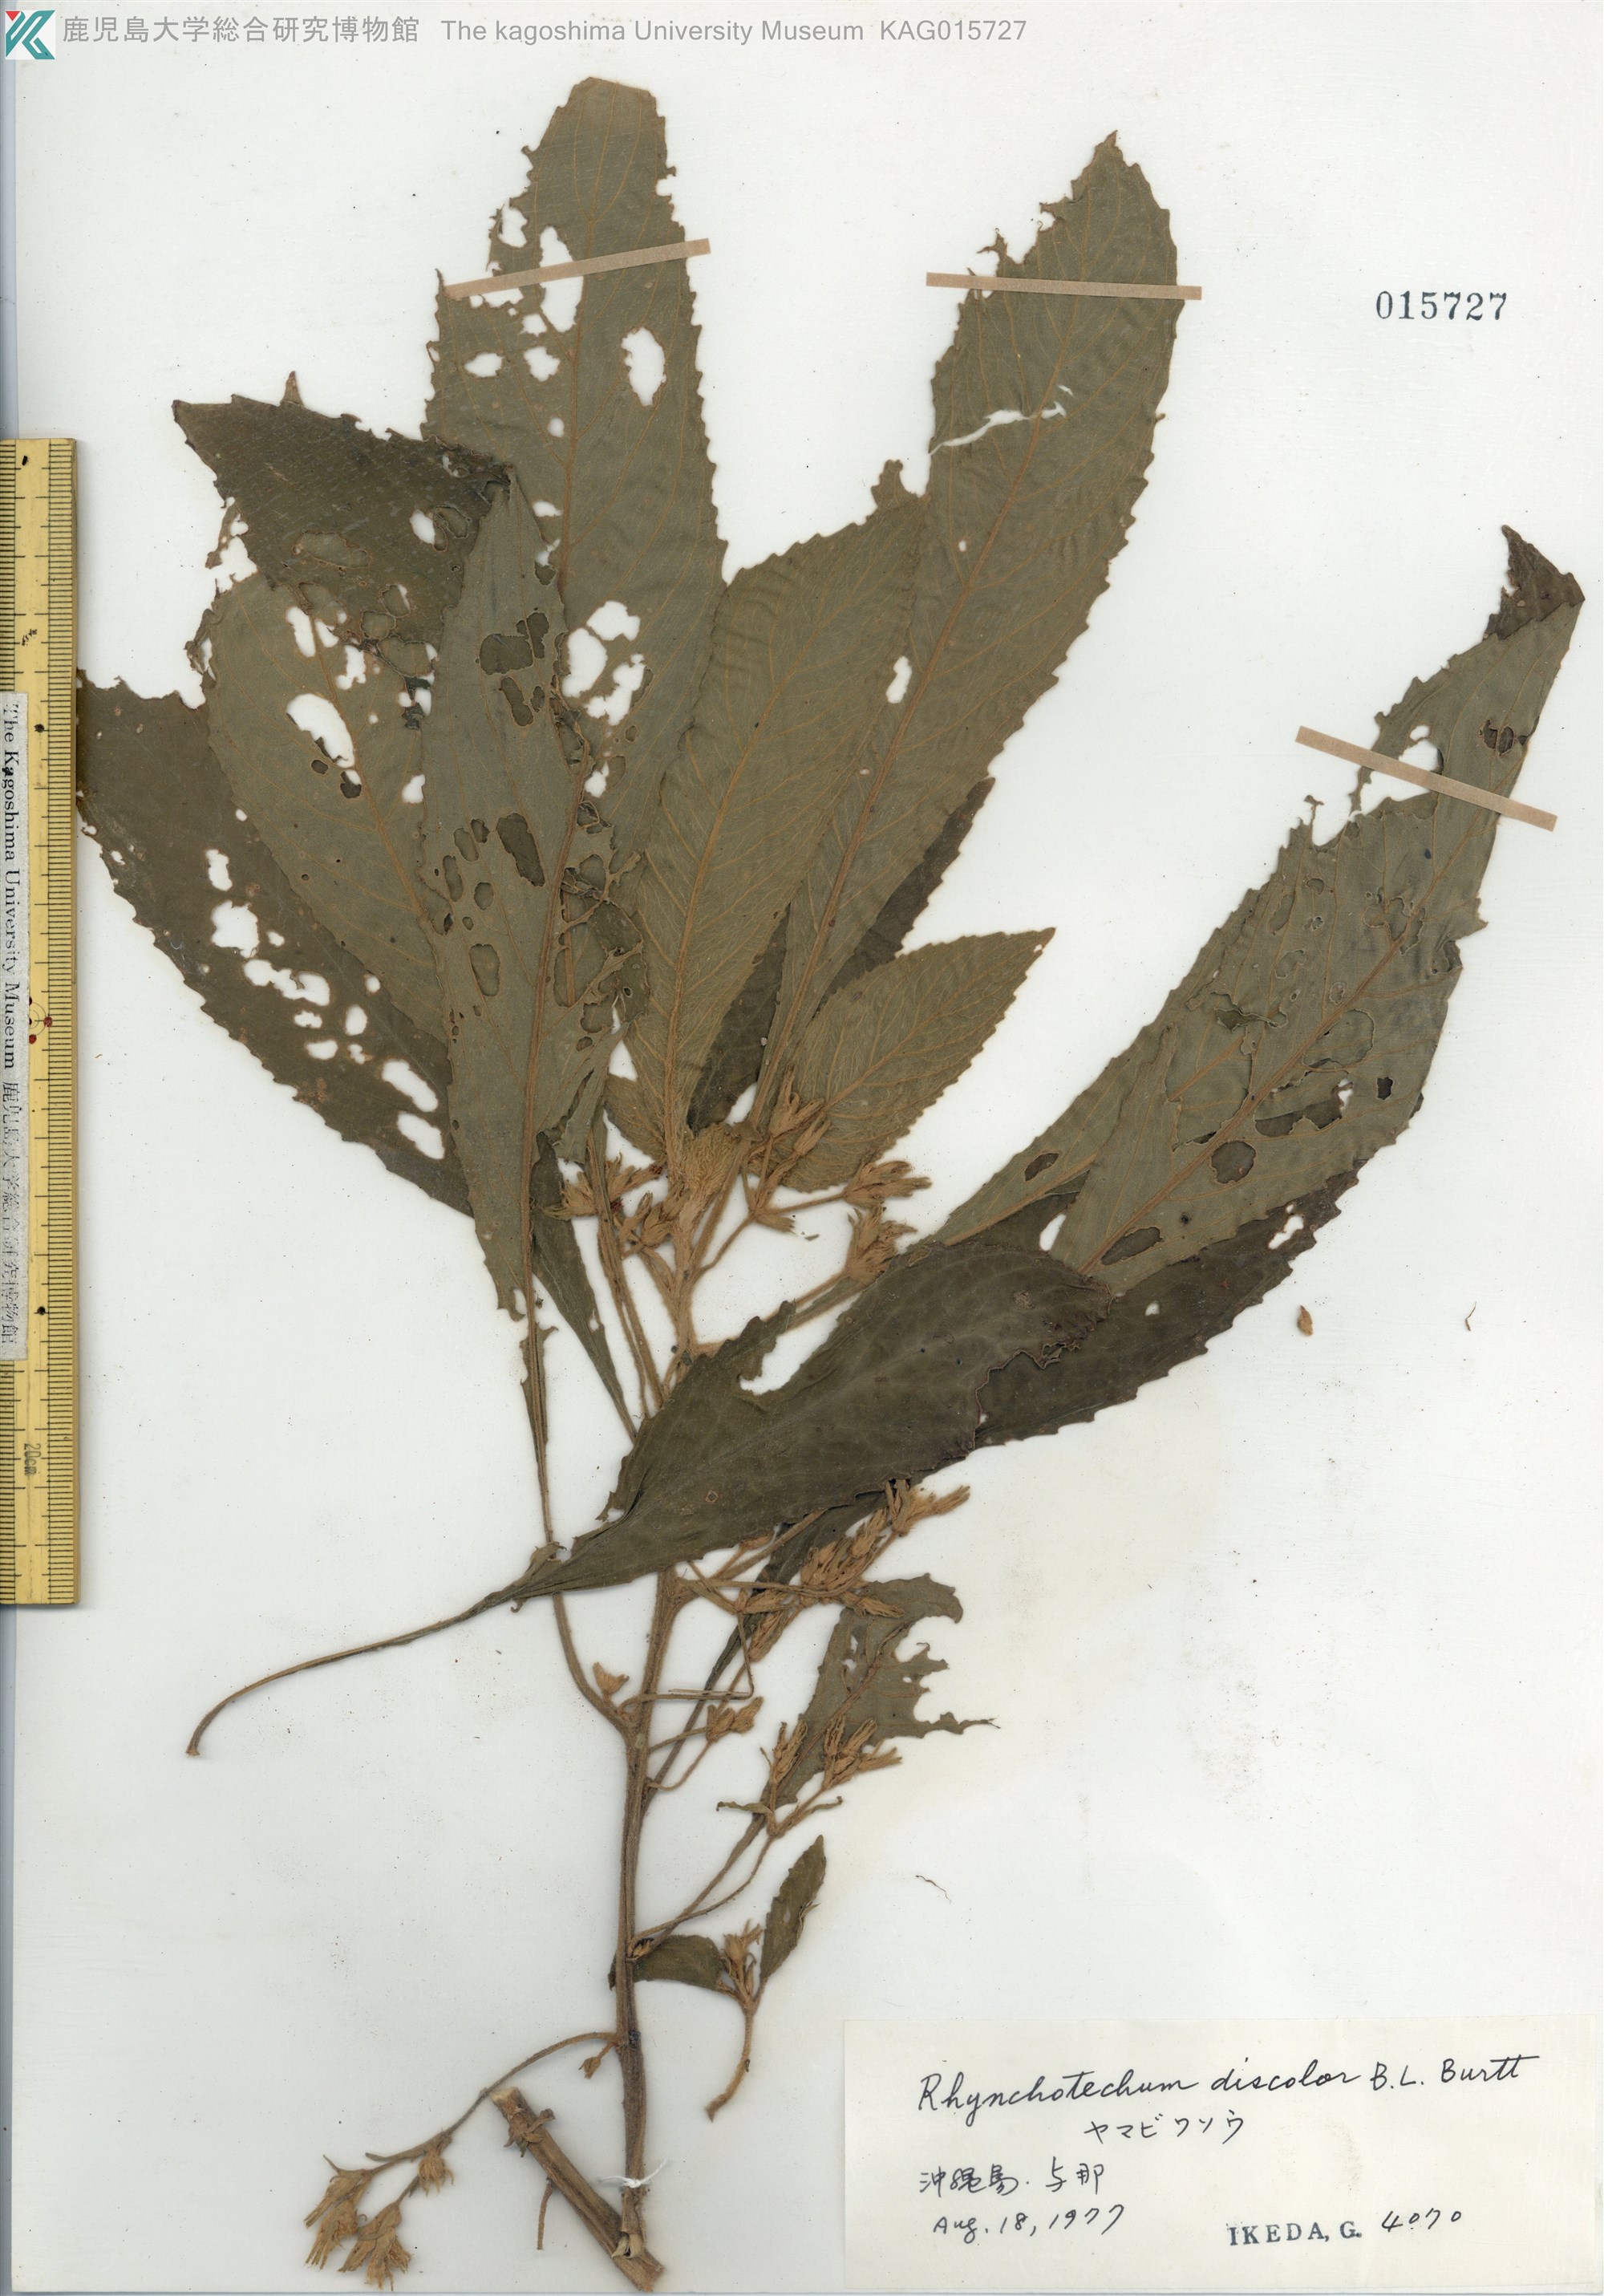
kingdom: Plantae
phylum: Tracheophyta
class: Magnoliopsida
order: Lamiales
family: Gesneriaceae
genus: Rhynchotechum
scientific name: Rhynchotechum discolor
